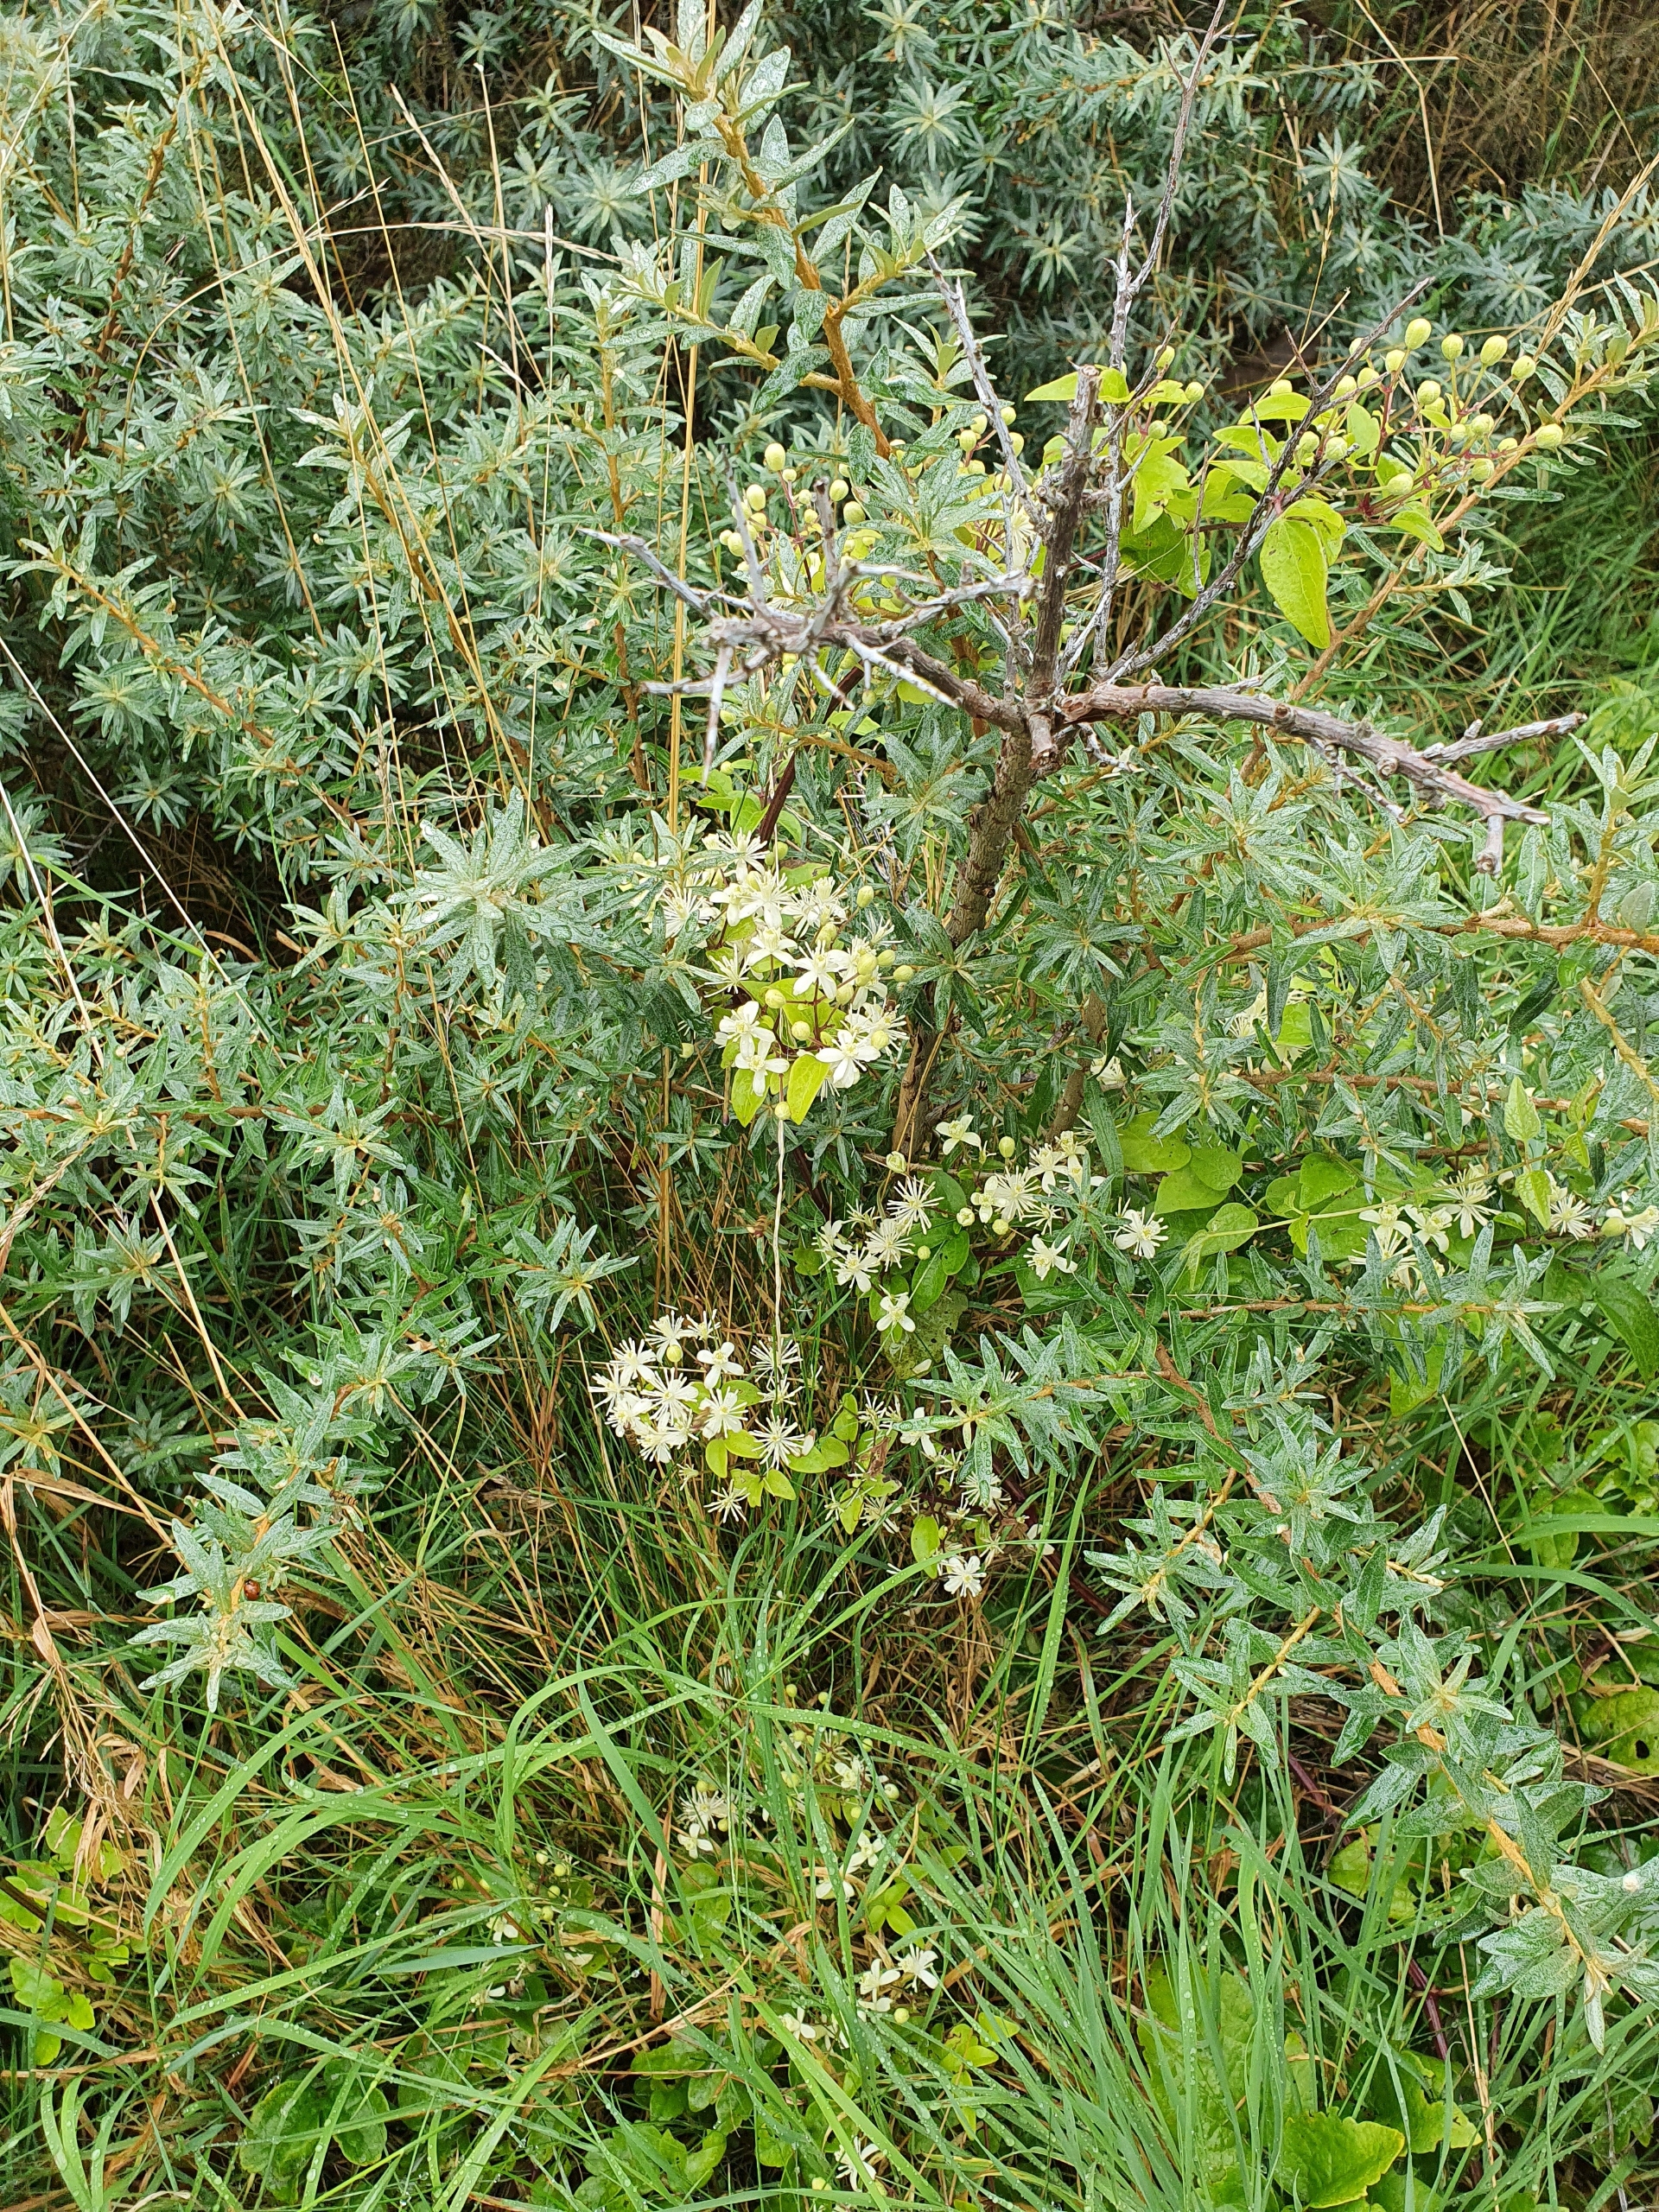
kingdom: Plantae
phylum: Tracheophyta
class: Magnoliopsida
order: Ranunculales
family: Ranunculaceae
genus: Clematis
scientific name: Clematis vitalba
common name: Skovranke
